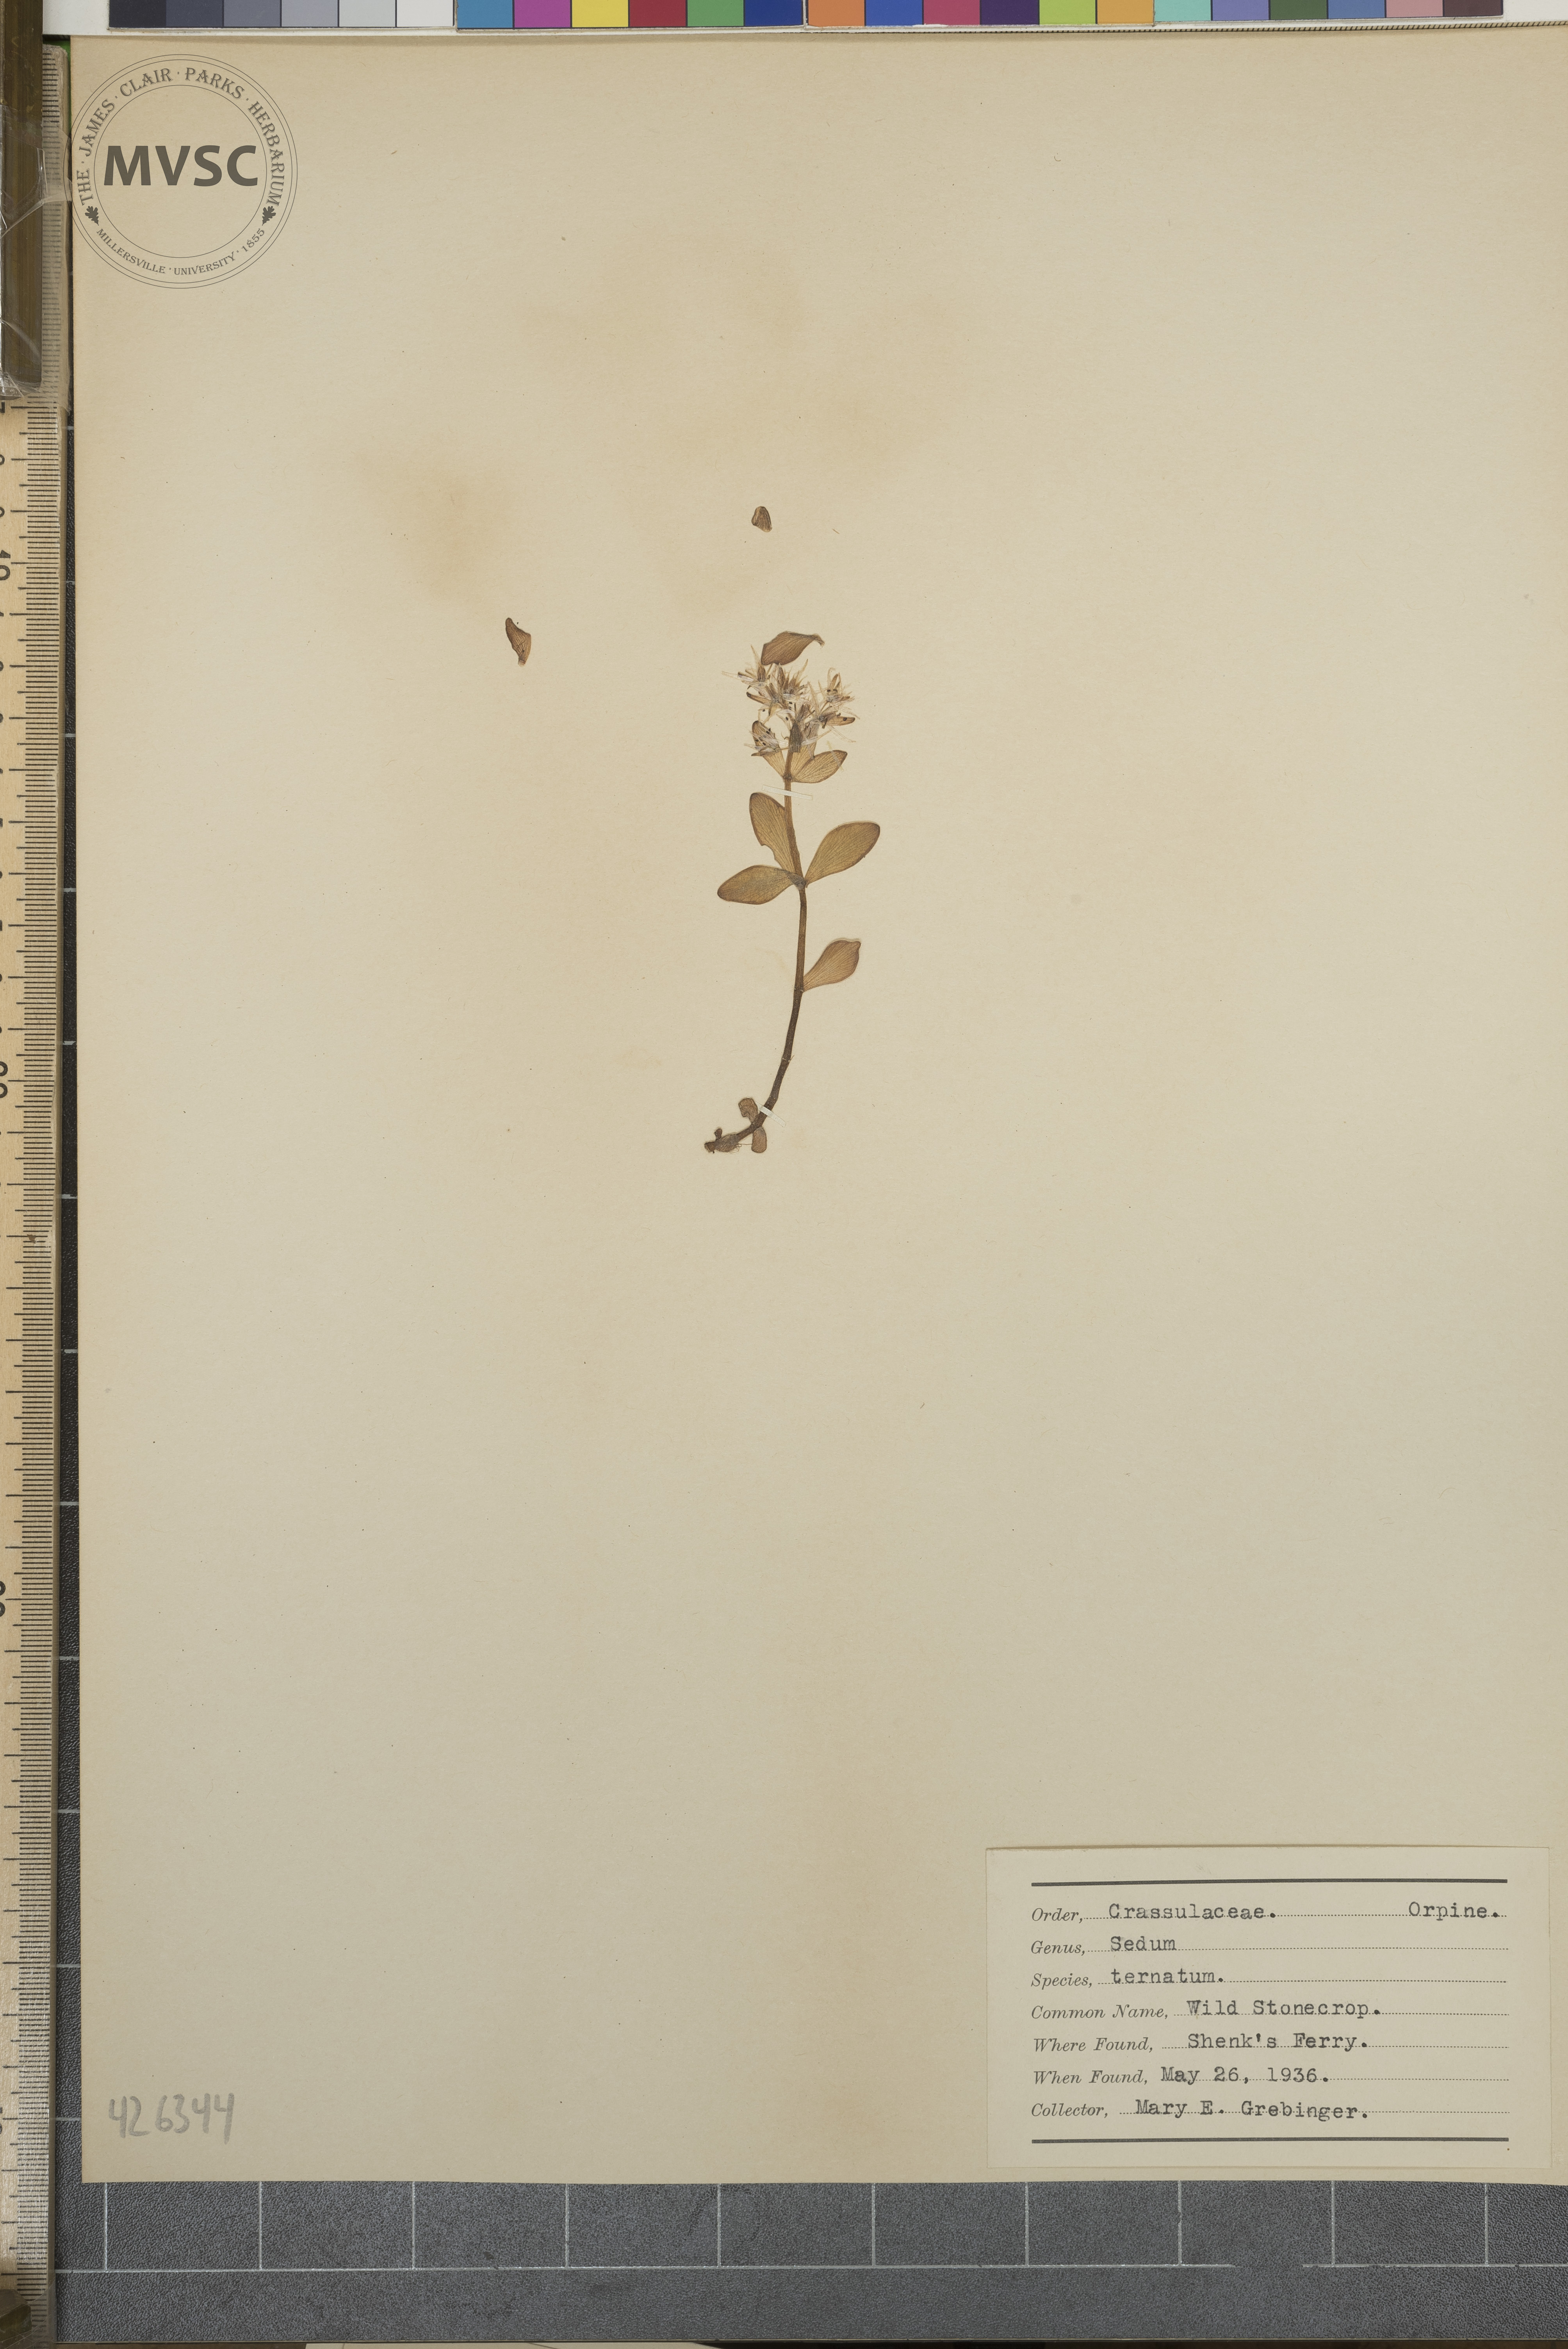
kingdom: Plantae
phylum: Tracheophyta
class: Magnoliopsida
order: Saxifragales
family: Crassulaceae
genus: Sedum
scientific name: Sedum ternatum
